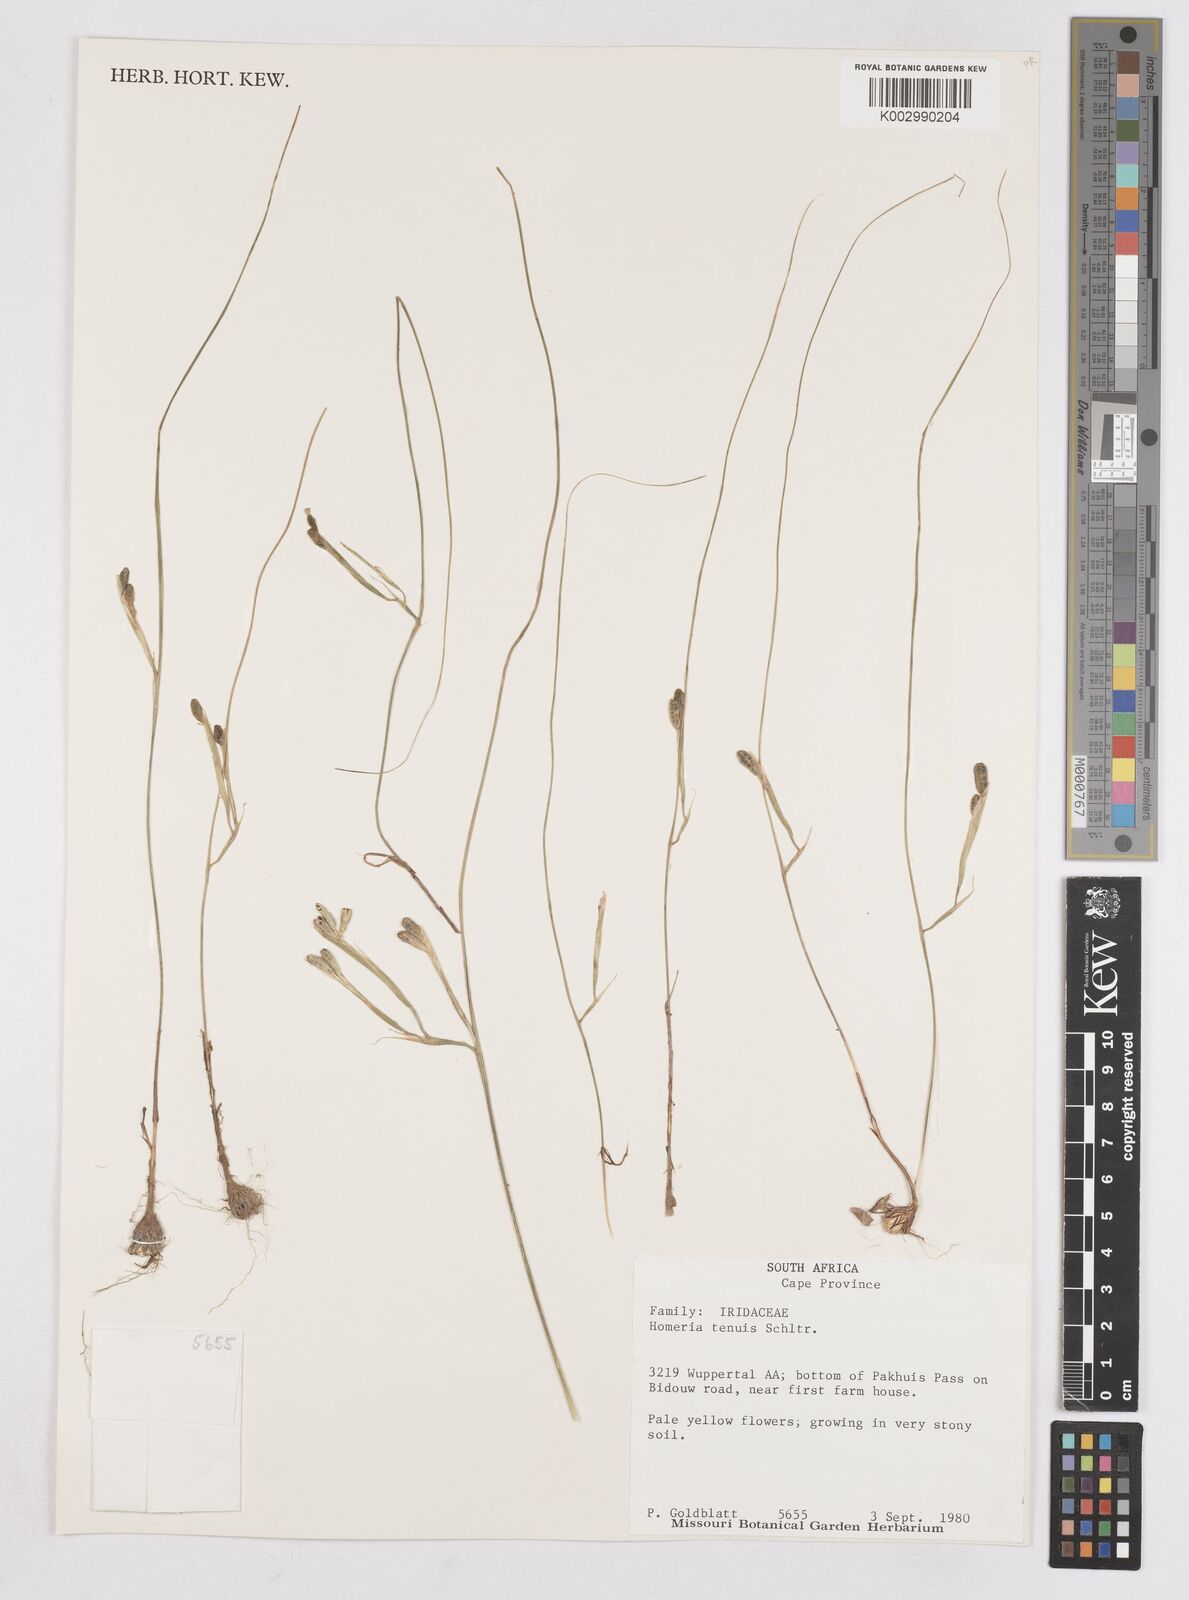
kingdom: Plantae
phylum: Tracheophyta
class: Liliopsida
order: Asparagales
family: Iridaceae
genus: Moraea
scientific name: Moraea unguiculata
